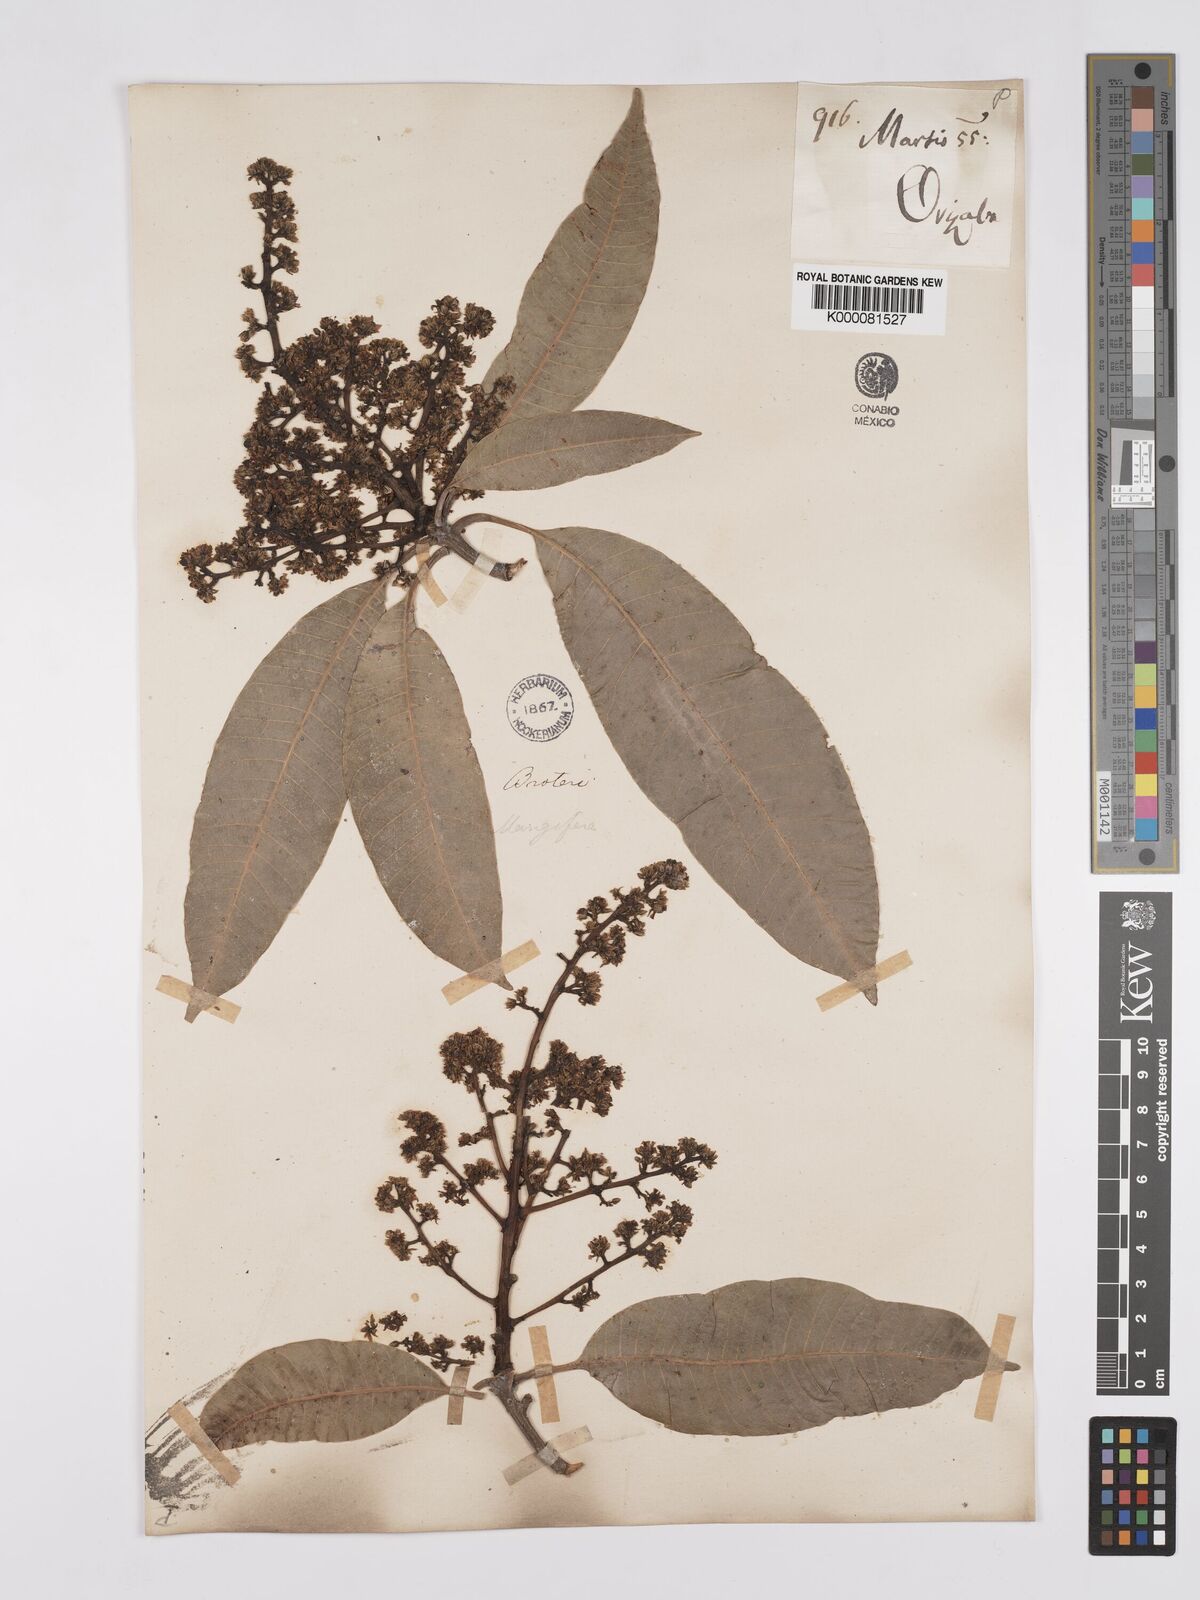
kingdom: Plantae
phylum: Tracheophyta
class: Magnoliopsida
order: Sapindales
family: Anacardiaceae
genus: Mangifera
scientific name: Mangifera indica
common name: Mango
